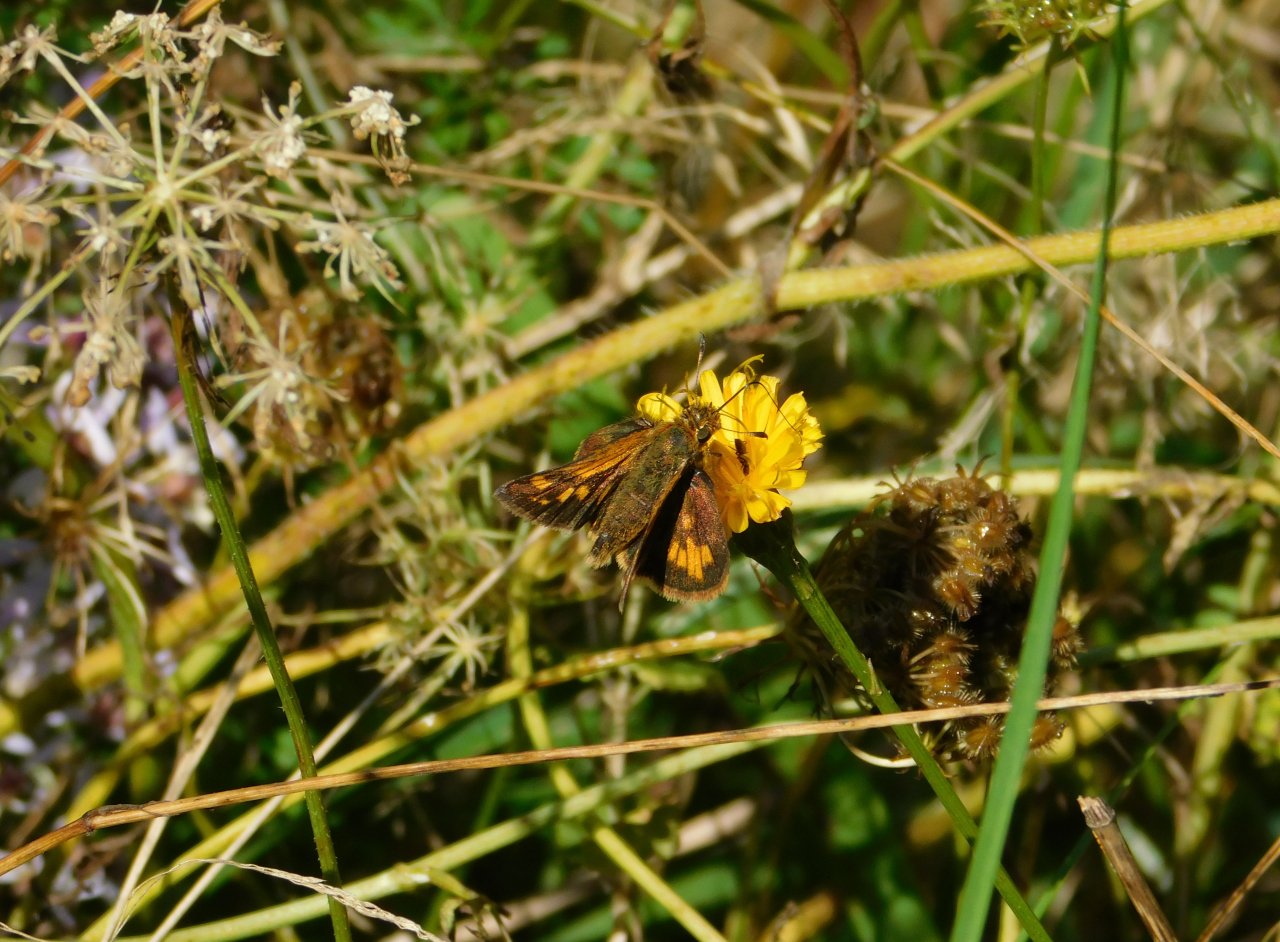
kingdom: Animalia
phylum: Arthropoda
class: Insecta
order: Lepidoptera
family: Hesperiidae
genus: Polites
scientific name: Polites coras
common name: Peck's Skipper
